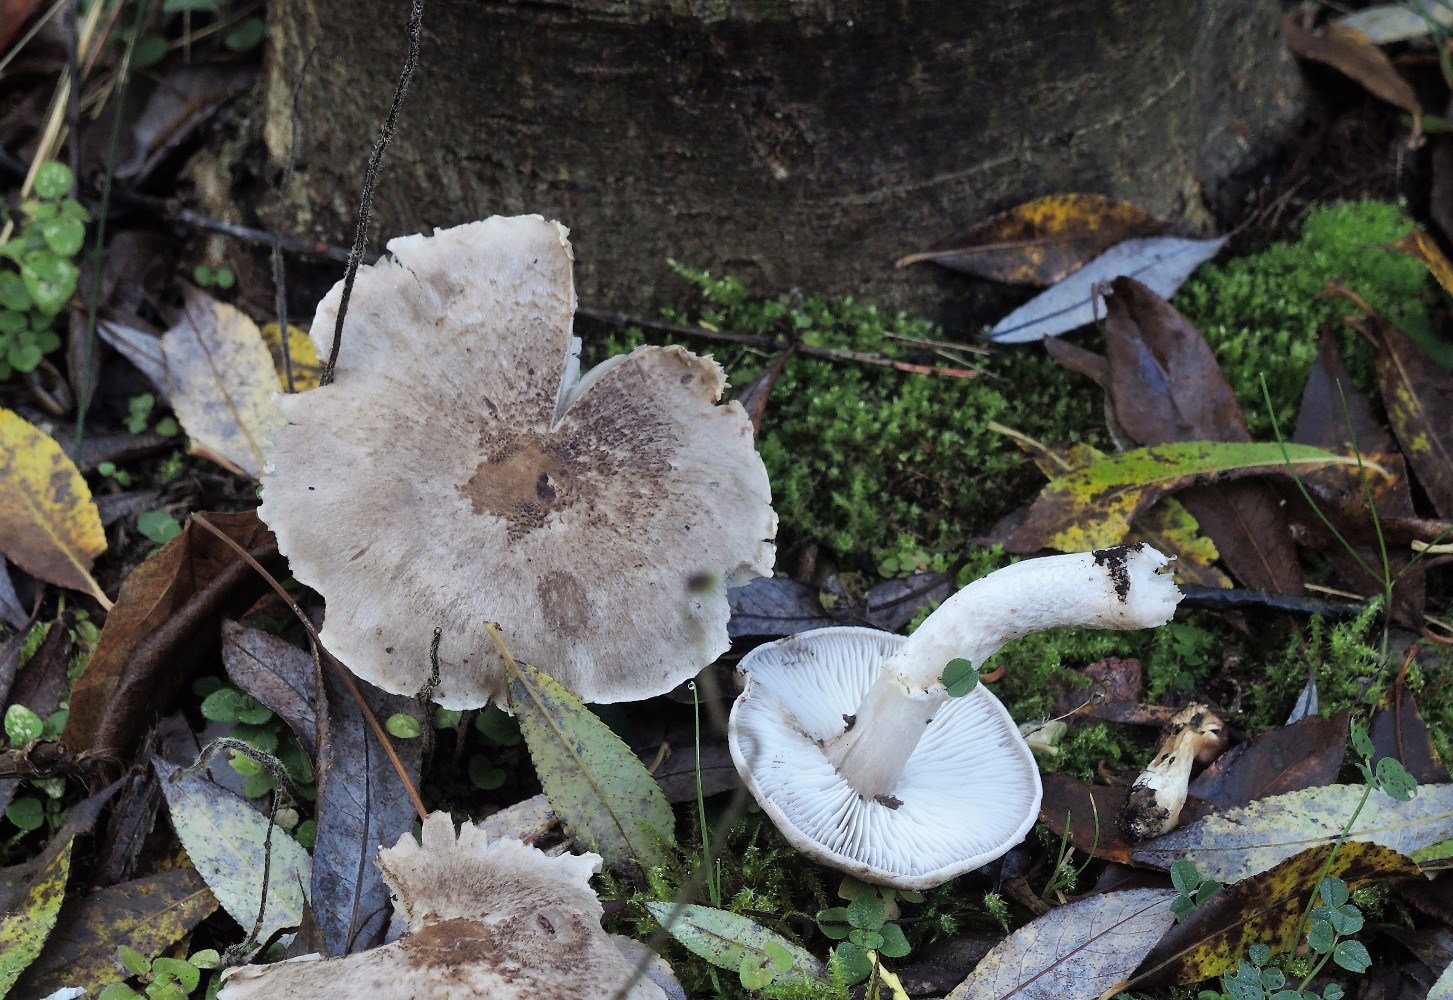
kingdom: Fungi
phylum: Basidiomycota
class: Agaricomycetes
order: Agaricales
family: Tricholomataceae
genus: Tricholoma
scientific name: Tricholoma cingulatum
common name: ring-ridderhat
